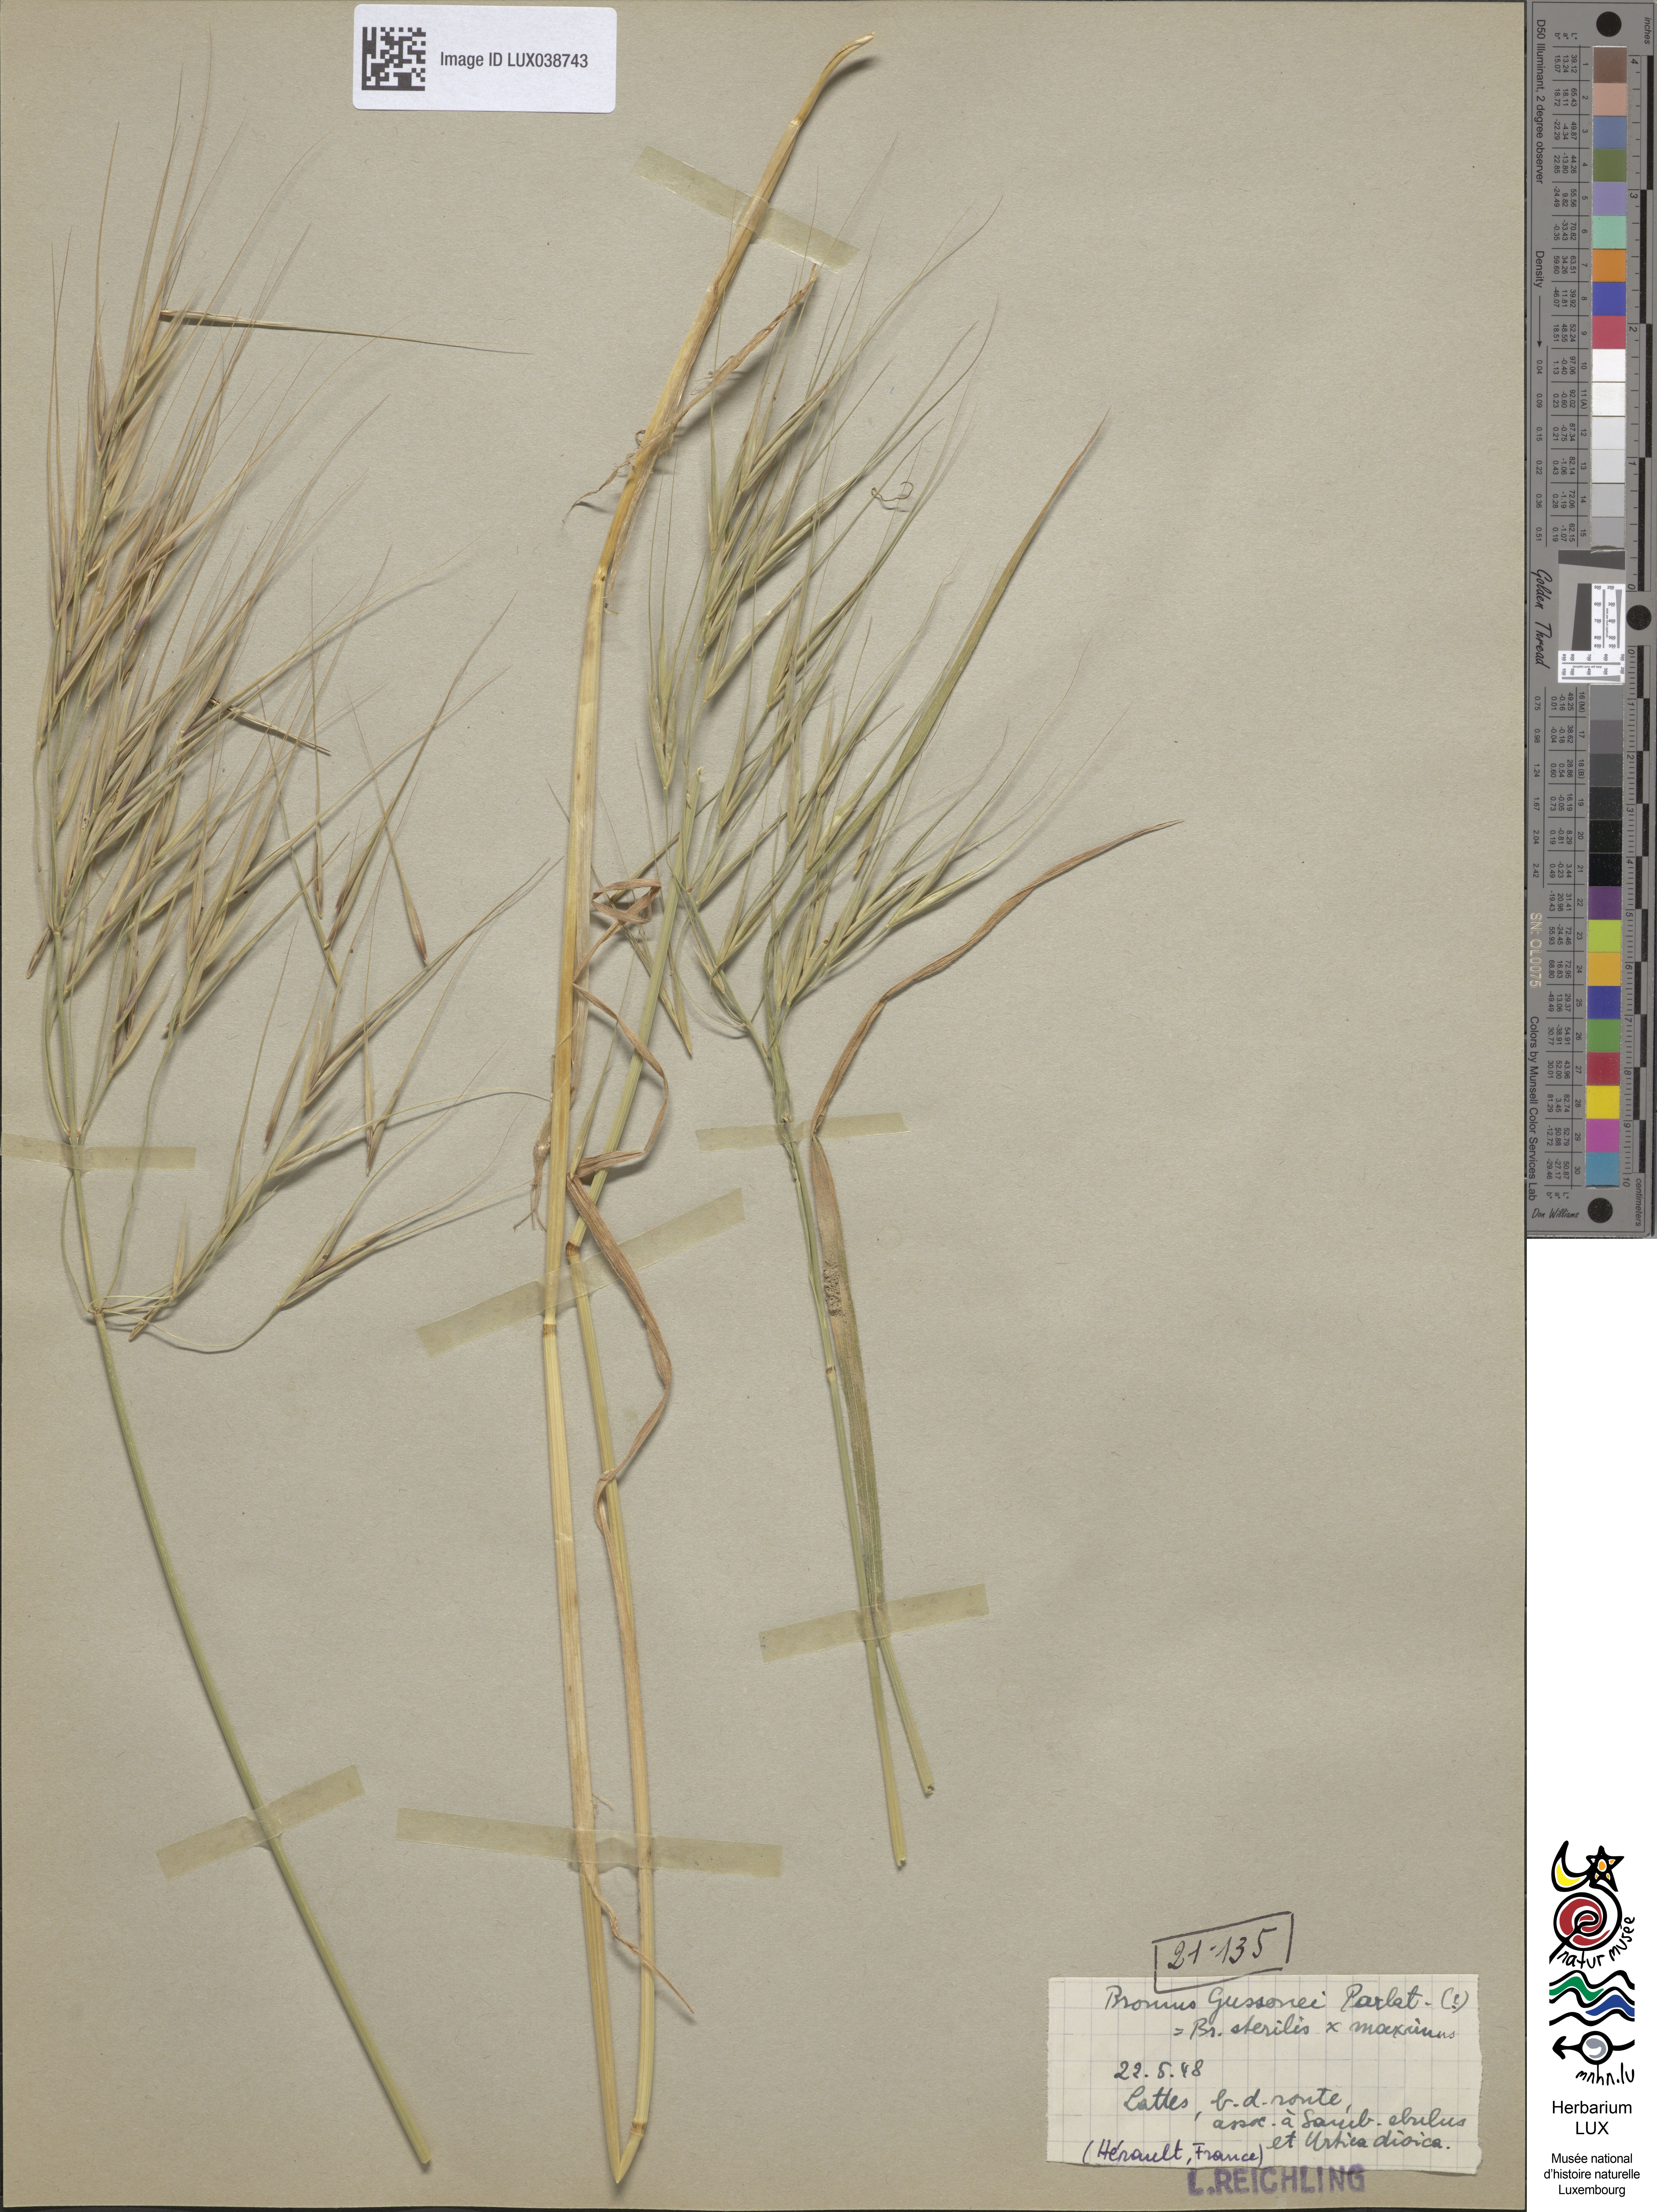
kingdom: Plantae
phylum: Tracheophyta
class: Liliopsida
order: Poales
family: Poaceae
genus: Bromus
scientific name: Bromus diandrus
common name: Ripgut brome
